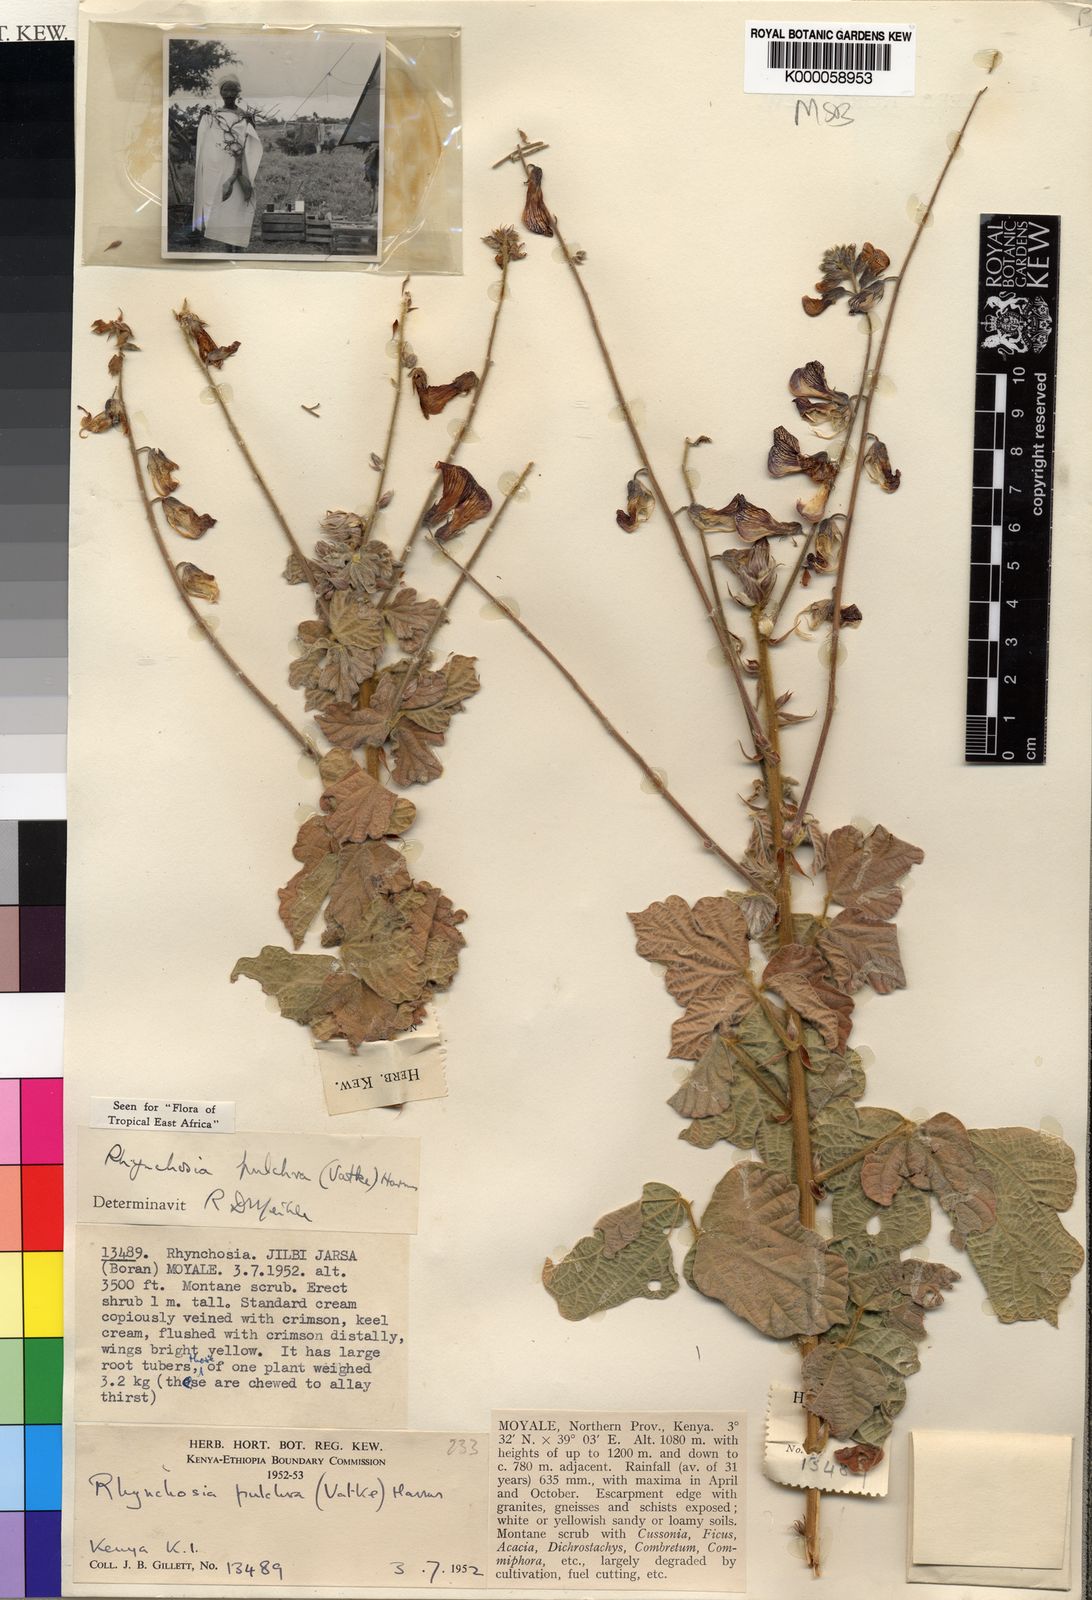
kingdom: Plantae
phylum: Tracheophyta
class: Magnoliopsida
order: Fabales
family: Fabaceae
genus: Rhynchosia
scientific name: Rhynchosia pulchra
